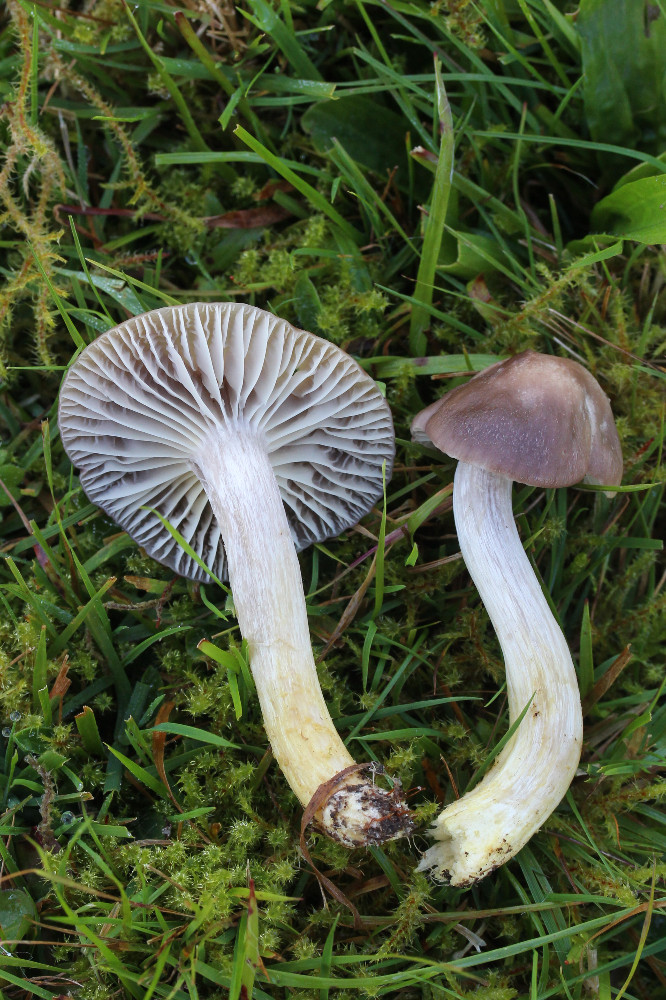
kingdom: Fungi
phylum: Basidiomycota
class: Agaricomycetes
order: Agaricales
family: Hygrophoraceae
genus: Cuphophyllus
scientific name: Cuphophyllus flavipes
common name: gulfodet vokshat
